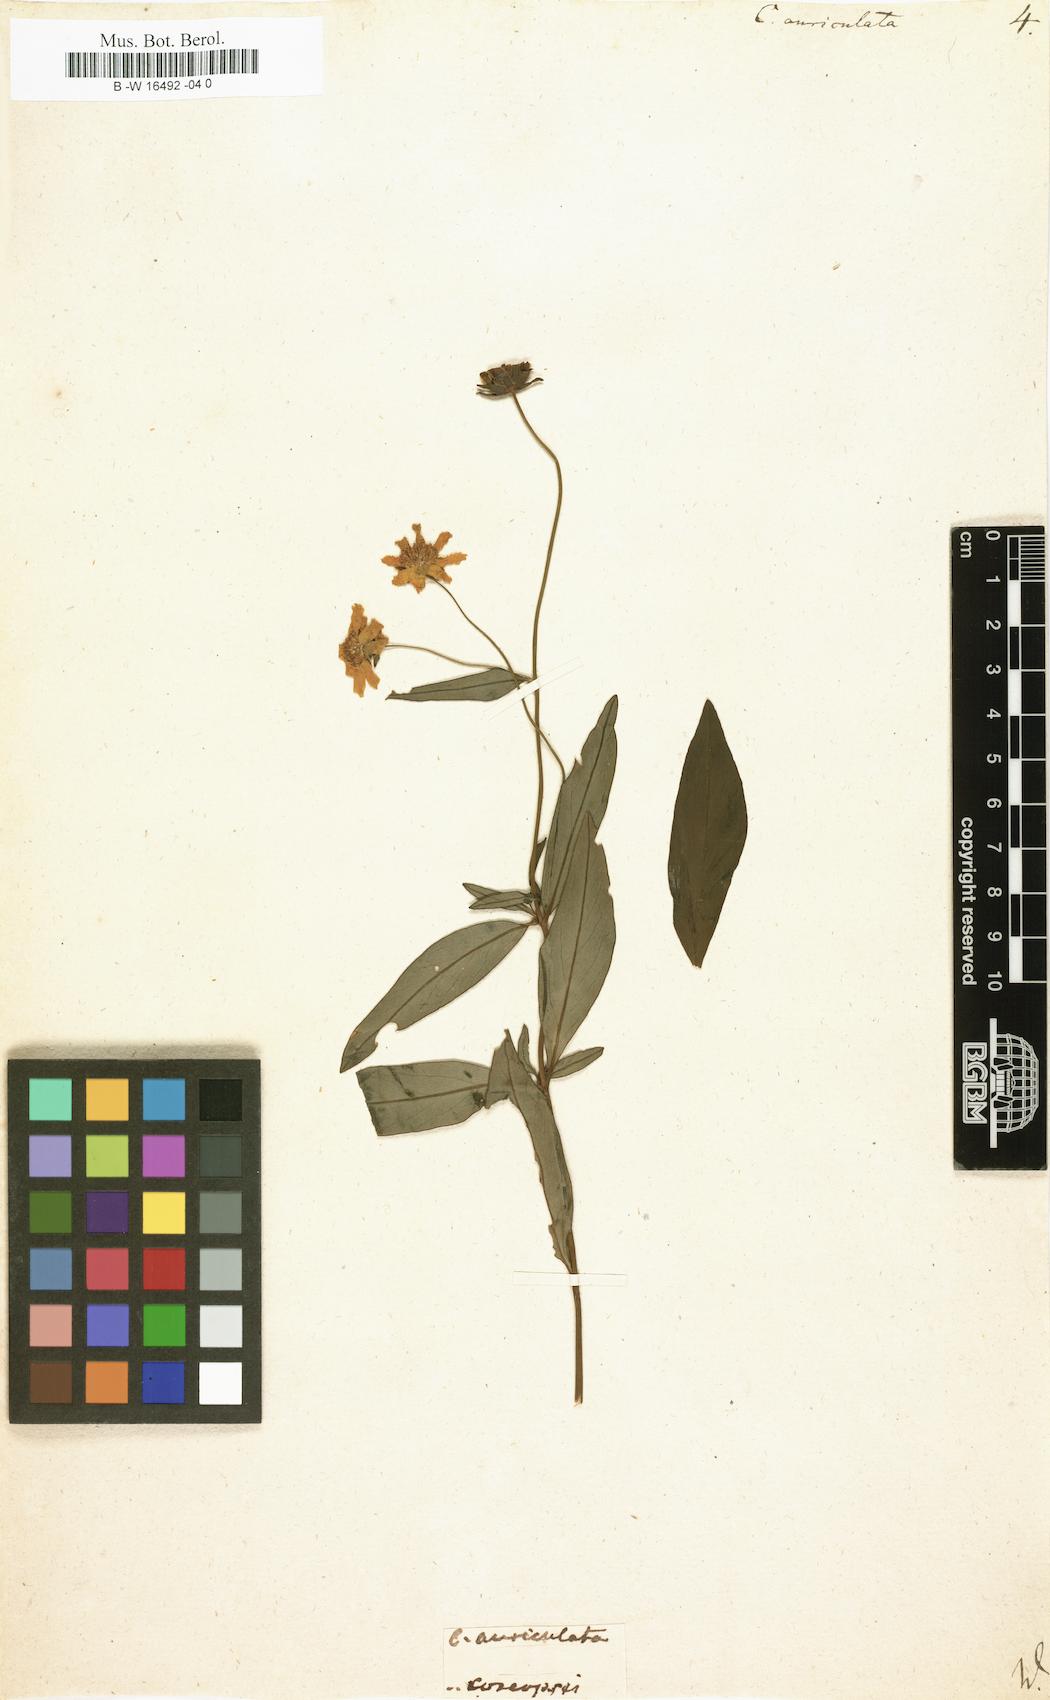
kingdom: Plantae
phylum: Tracheophyta
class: Magnoliopsida
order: Asterales
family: Asteraceae
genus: Coreopsis
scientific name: Coreopsis auriculata
